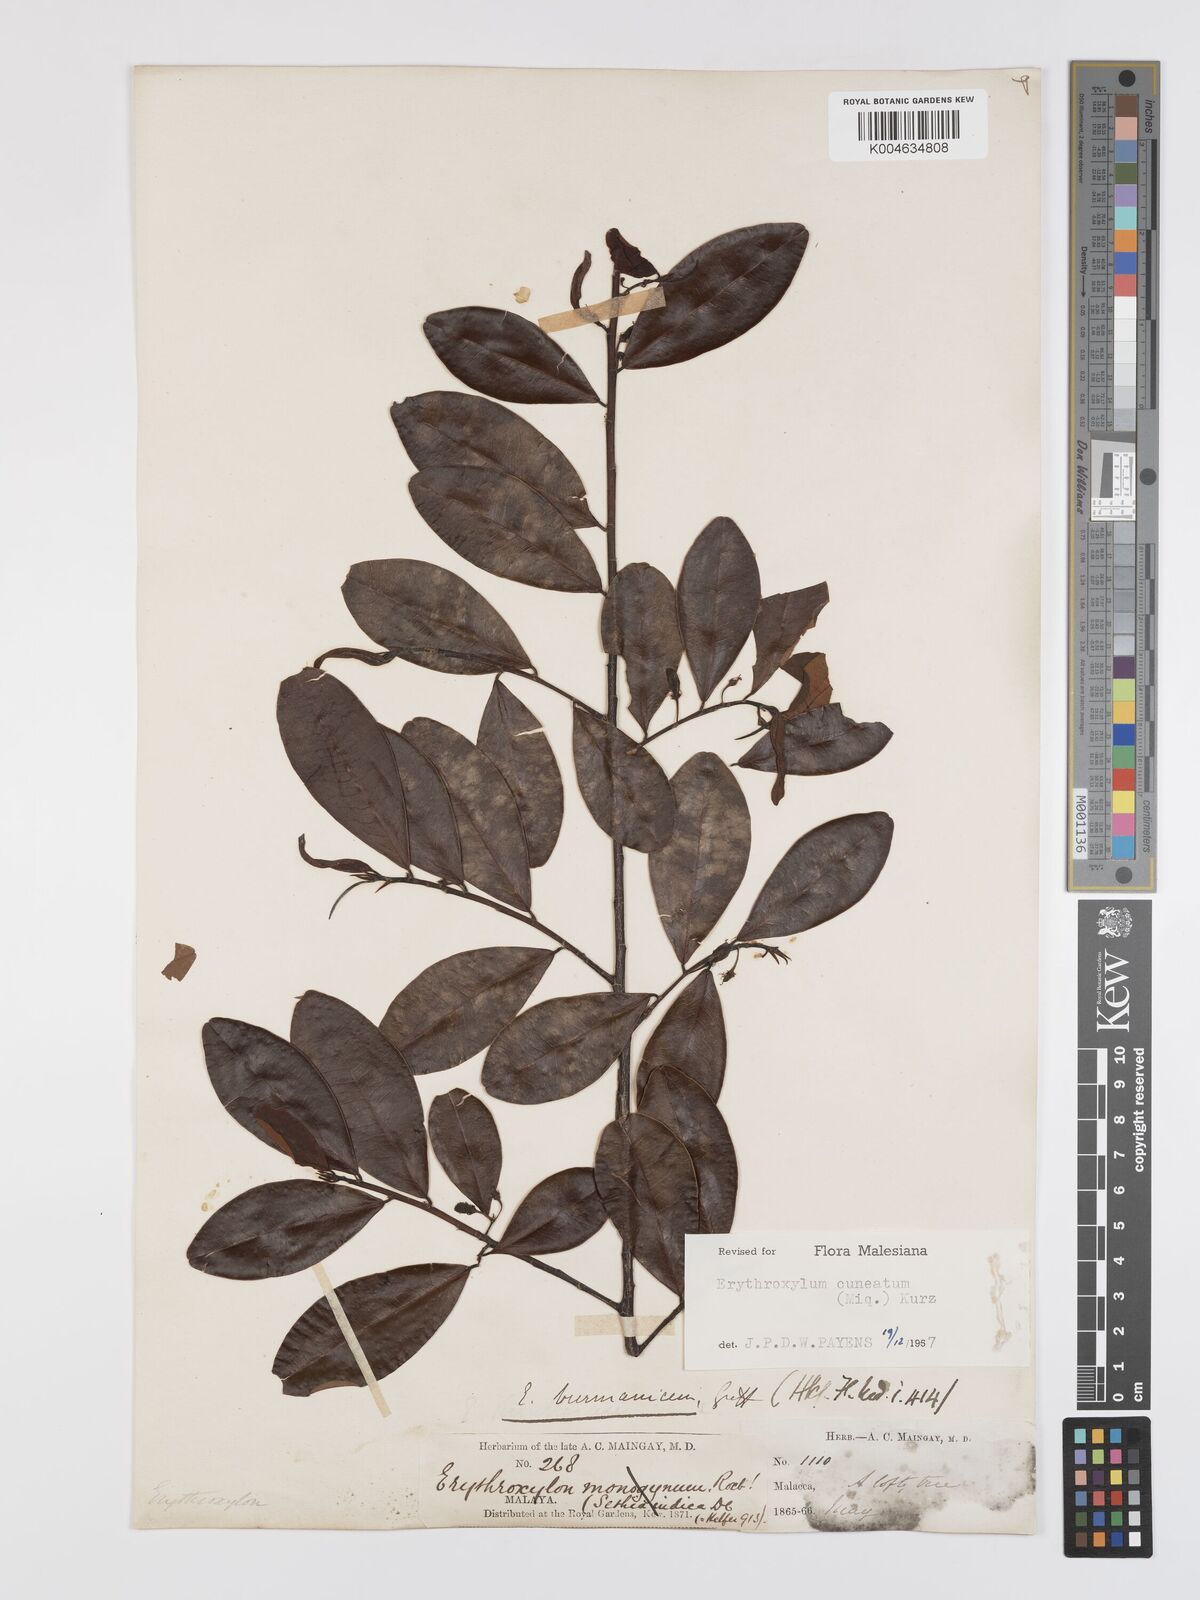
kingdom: Plantae
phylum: Tracheophyta
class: Magnoliopsida
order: Malpighiales
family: Erythroxylaceae
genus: Erythroxylum
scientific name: Erythroxylum cuneatum
